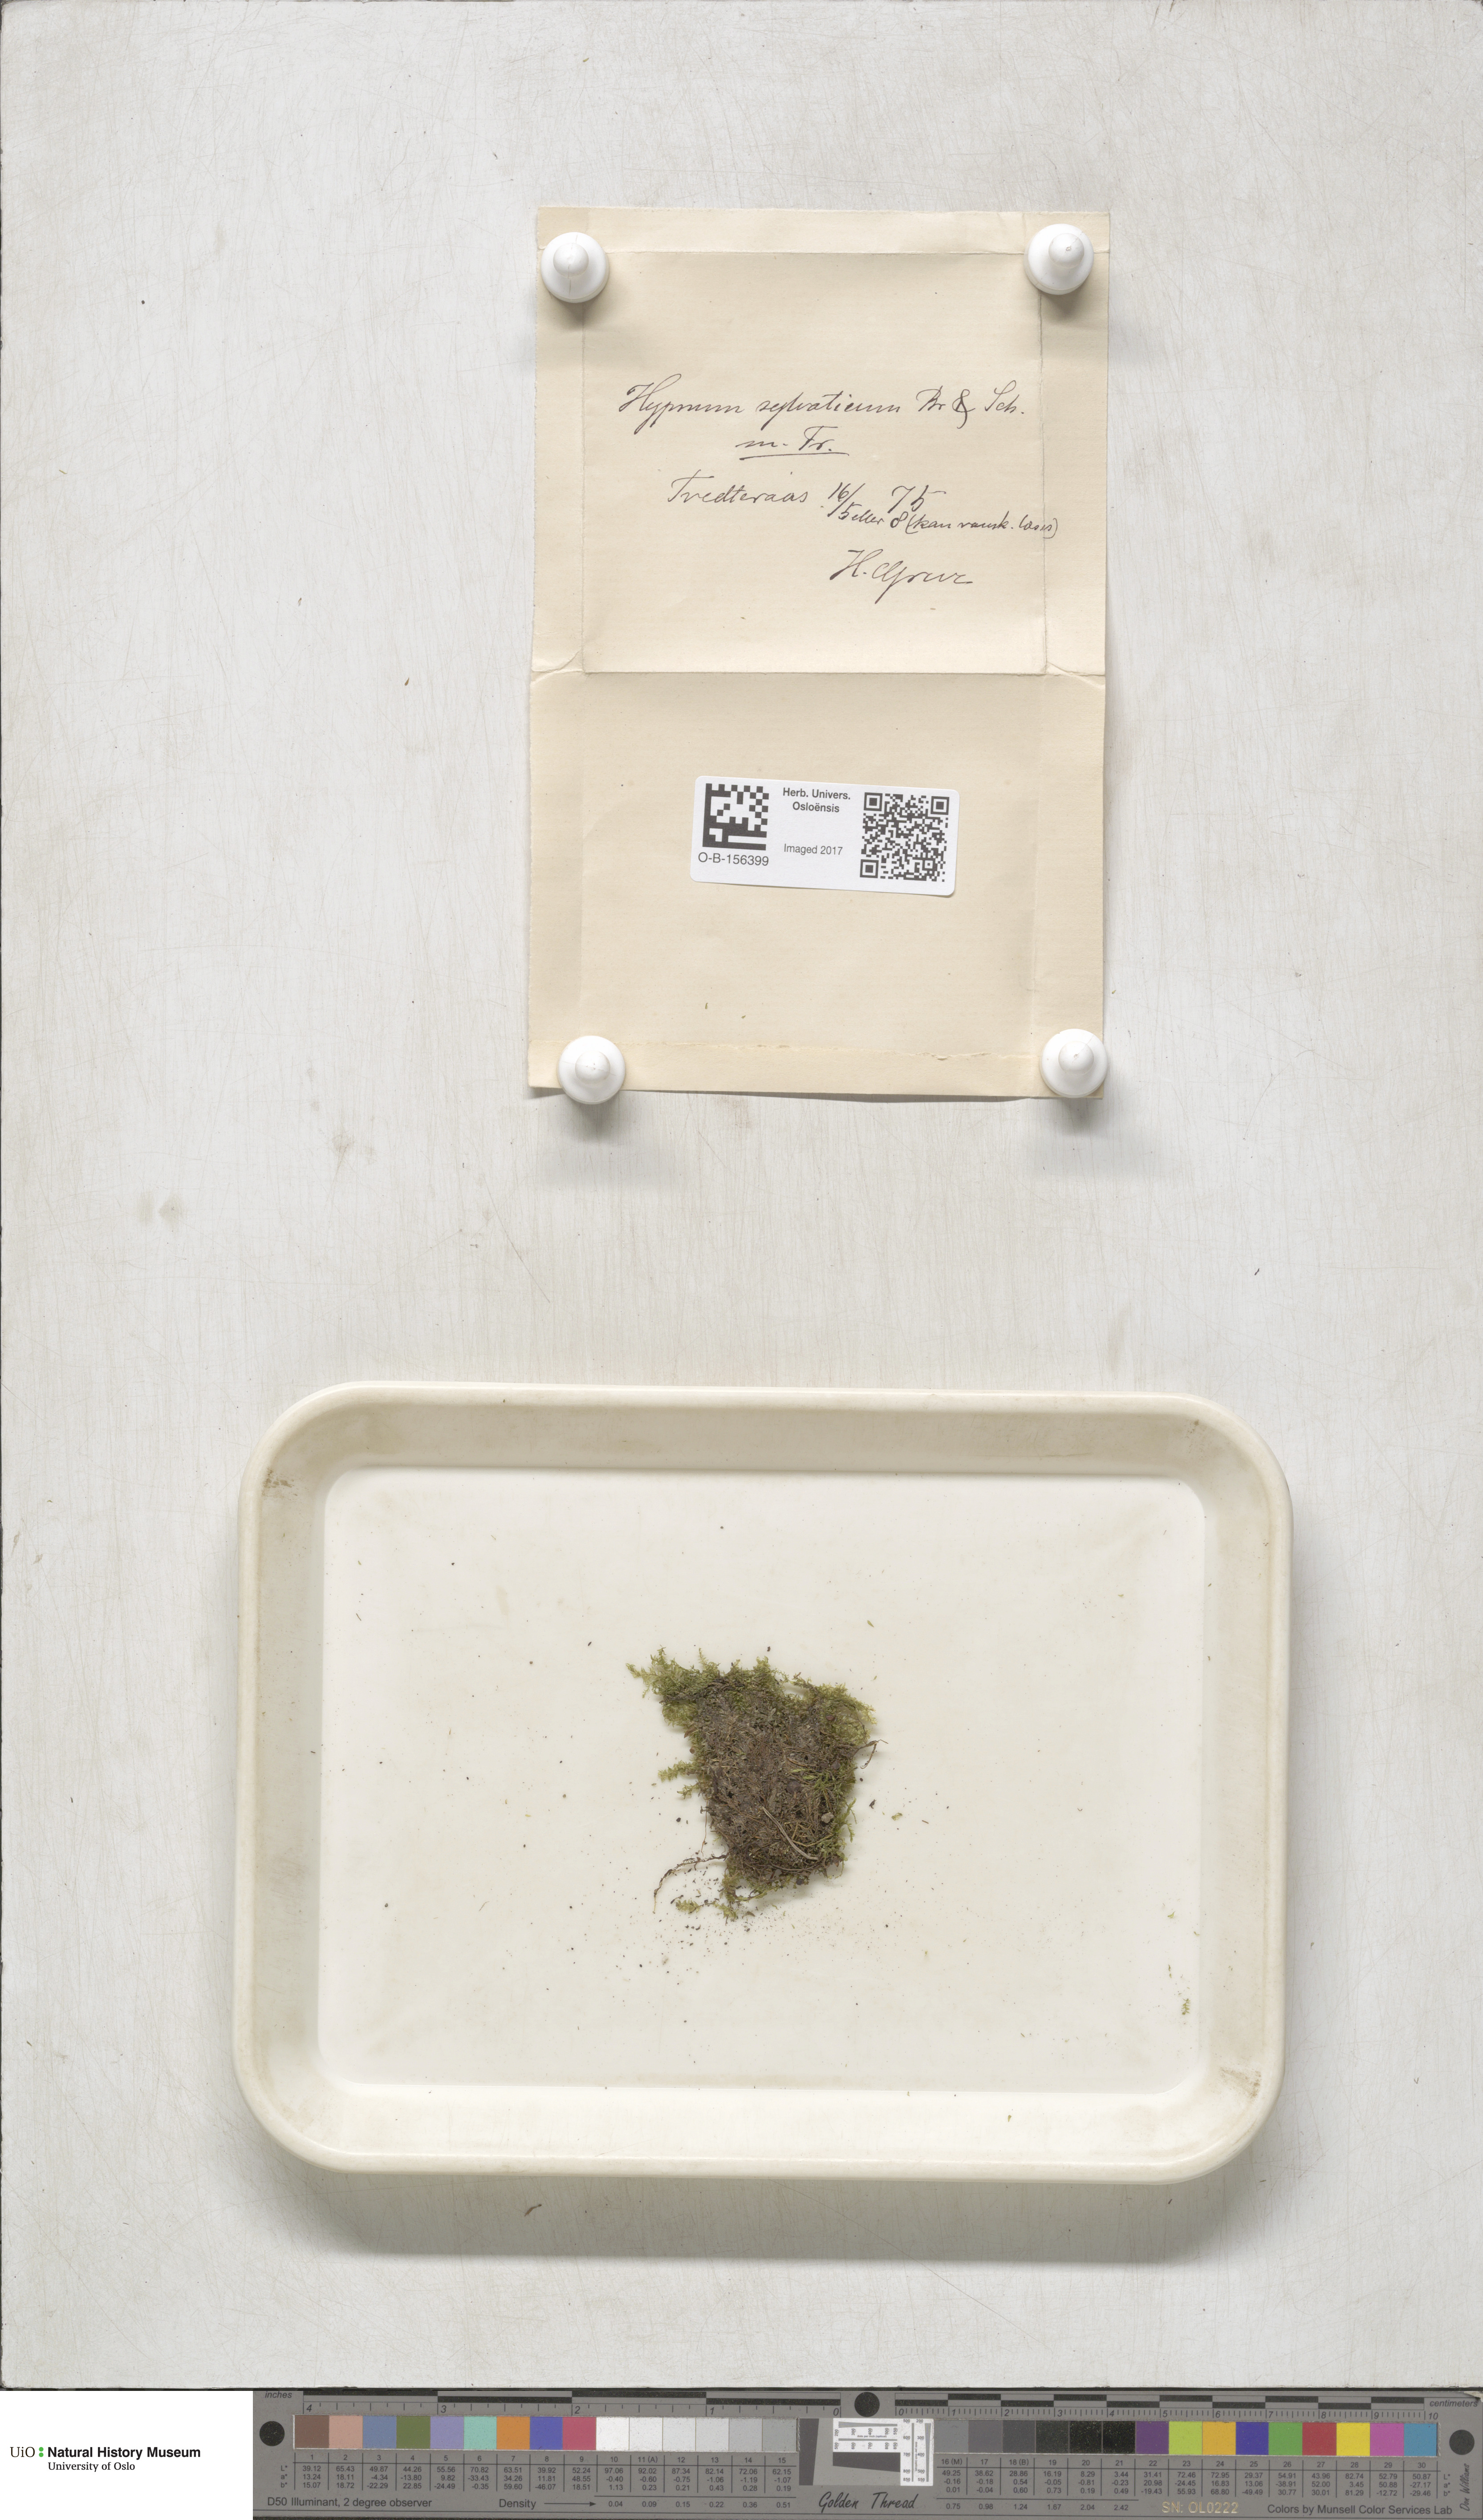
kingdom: Plantae
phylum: Bryophyta
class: Bryopsida
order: Hypnales
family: Plagiotheciaceae
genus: Plagiothecium
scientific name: Plagiothecium nemorale
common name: Woodsy silk-moss
